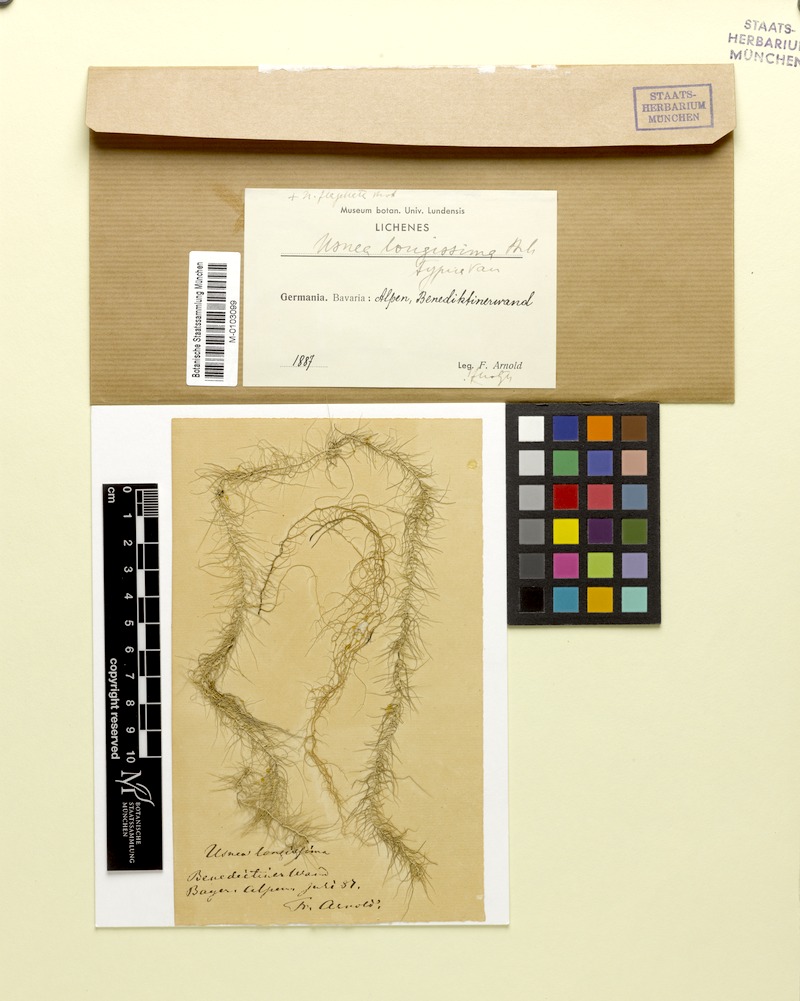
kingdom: Fungi
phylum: Ascomycota
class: Lecanoromycetes
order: Lecanorales
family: Parmeliaceae
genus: Dolichousnea
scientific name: Dolichousnea longissima
